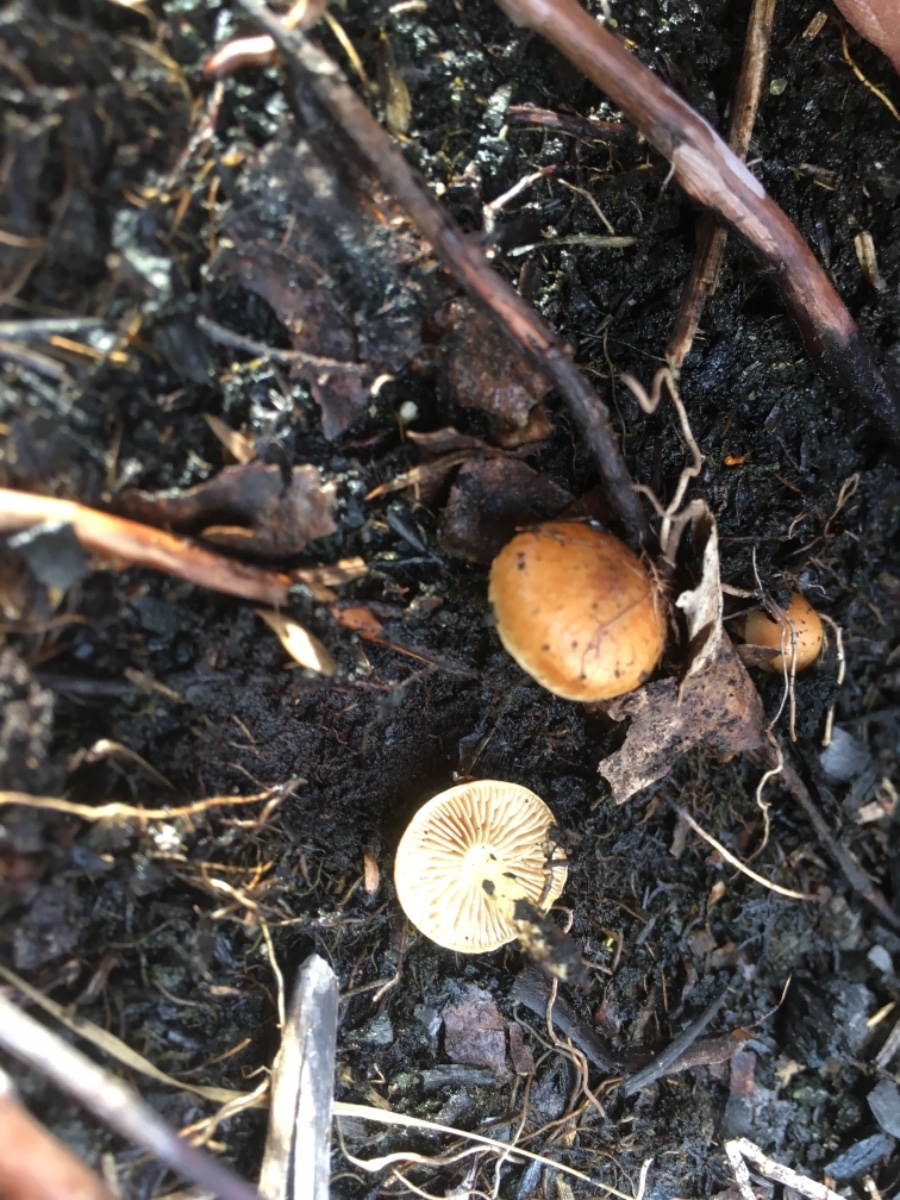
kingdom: Fungi
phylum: Basidiomycota
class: Agaricomycetes
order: Agaricales
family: Strophariaceae
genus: Pholiota
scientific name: Pholiota carbonaria
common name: kul-skælhat
